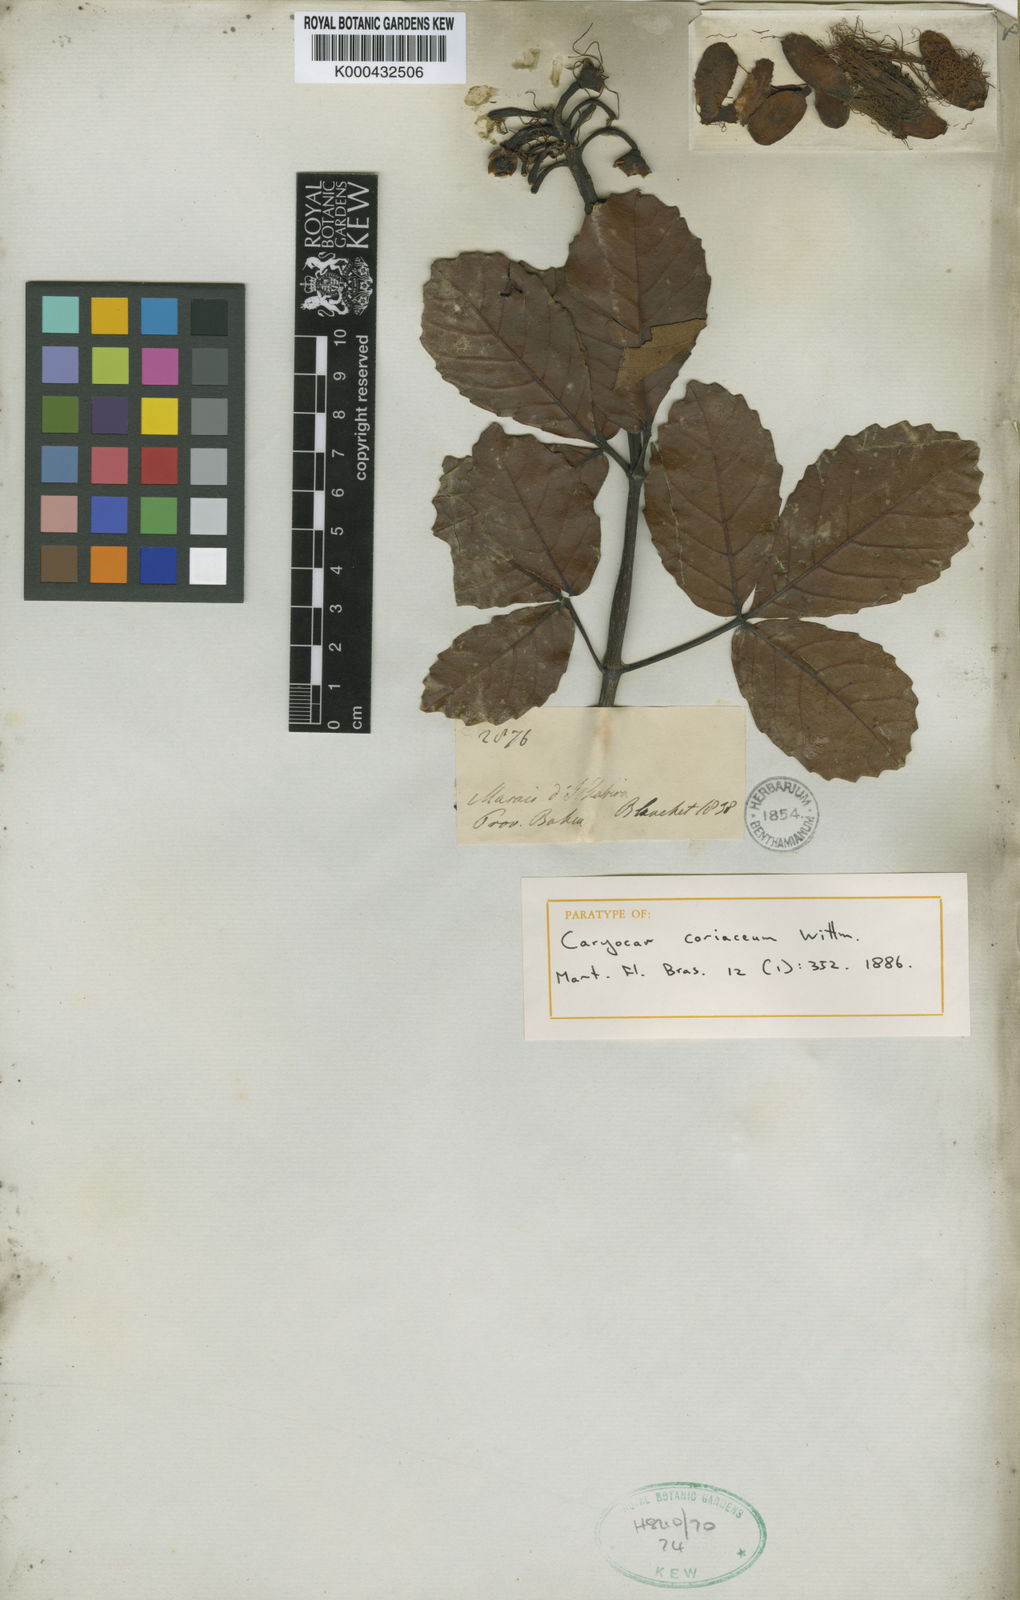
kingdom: Plantae
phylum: Tracheophyta
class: Magnoliopsida
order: Malpighiales
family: Caryocaraceae
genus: Caryocar
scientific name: Caryocar coriaceum
